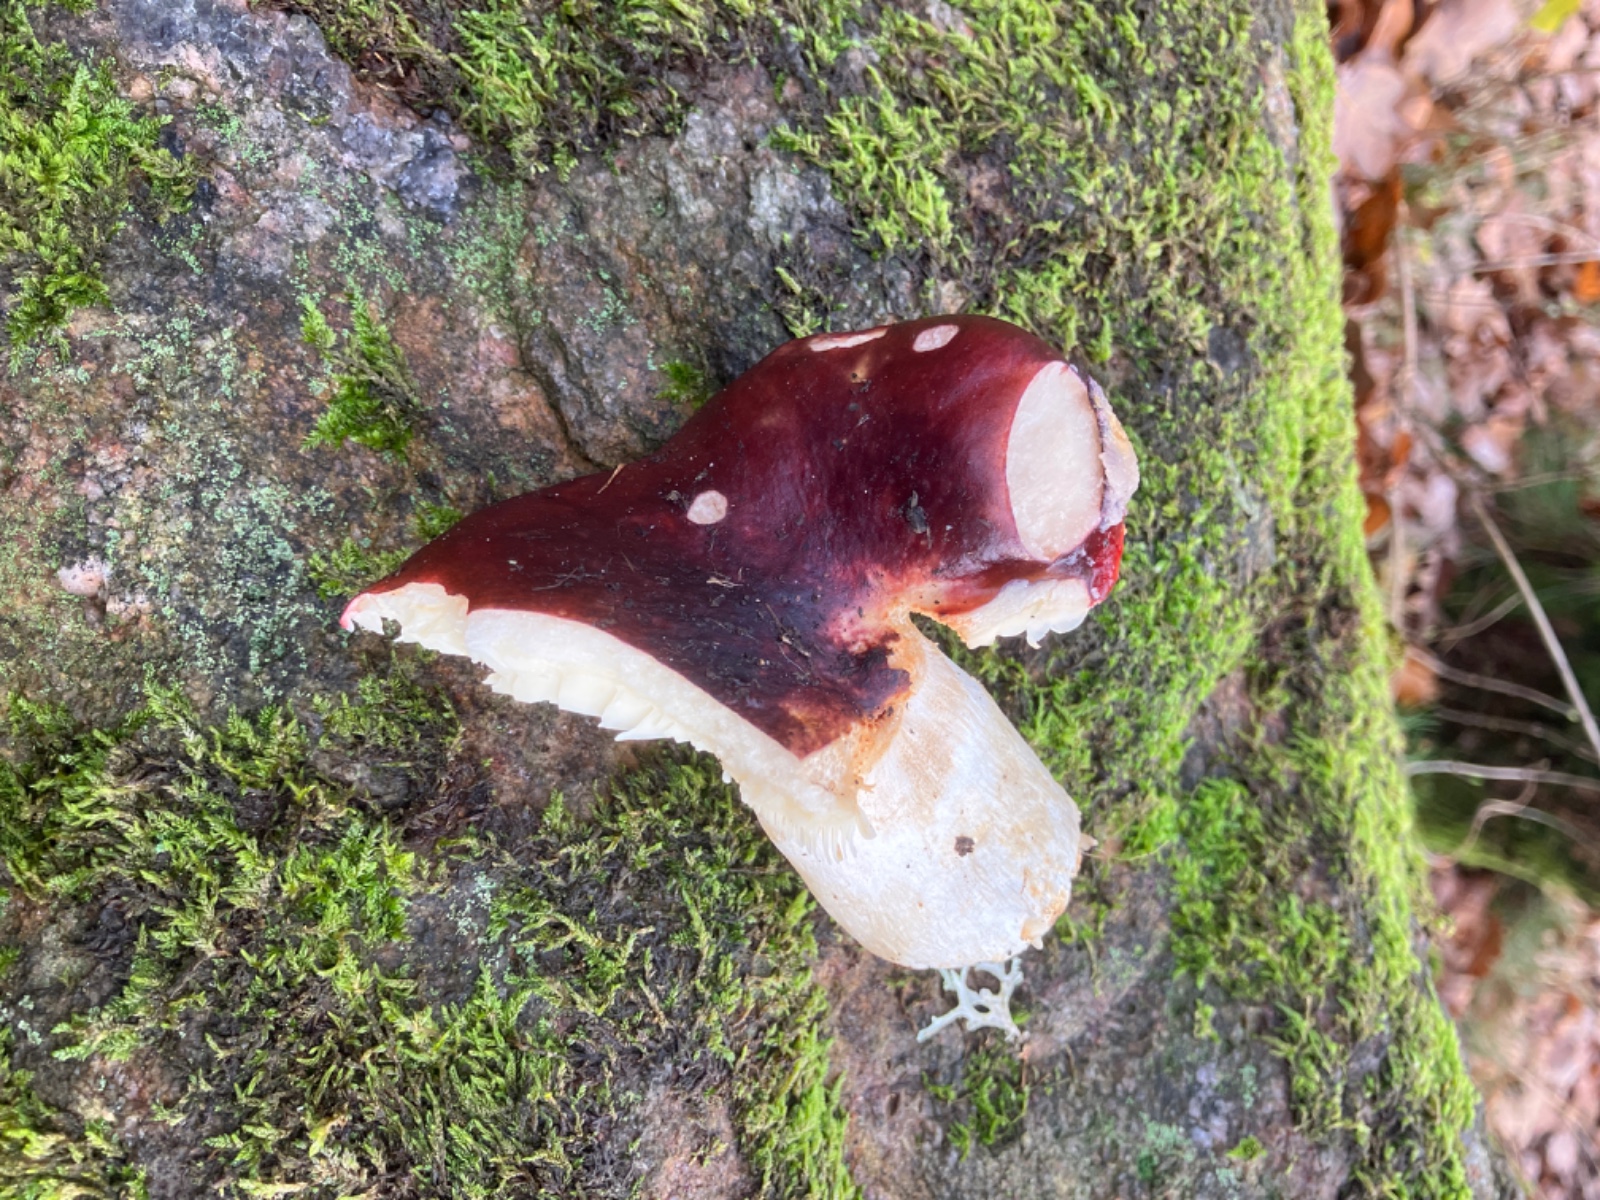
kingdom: Fungi
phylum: Basidiomycota
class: Agaricomycetes
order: Russulales
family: Russulaceae
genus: Russula
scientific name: Russula
